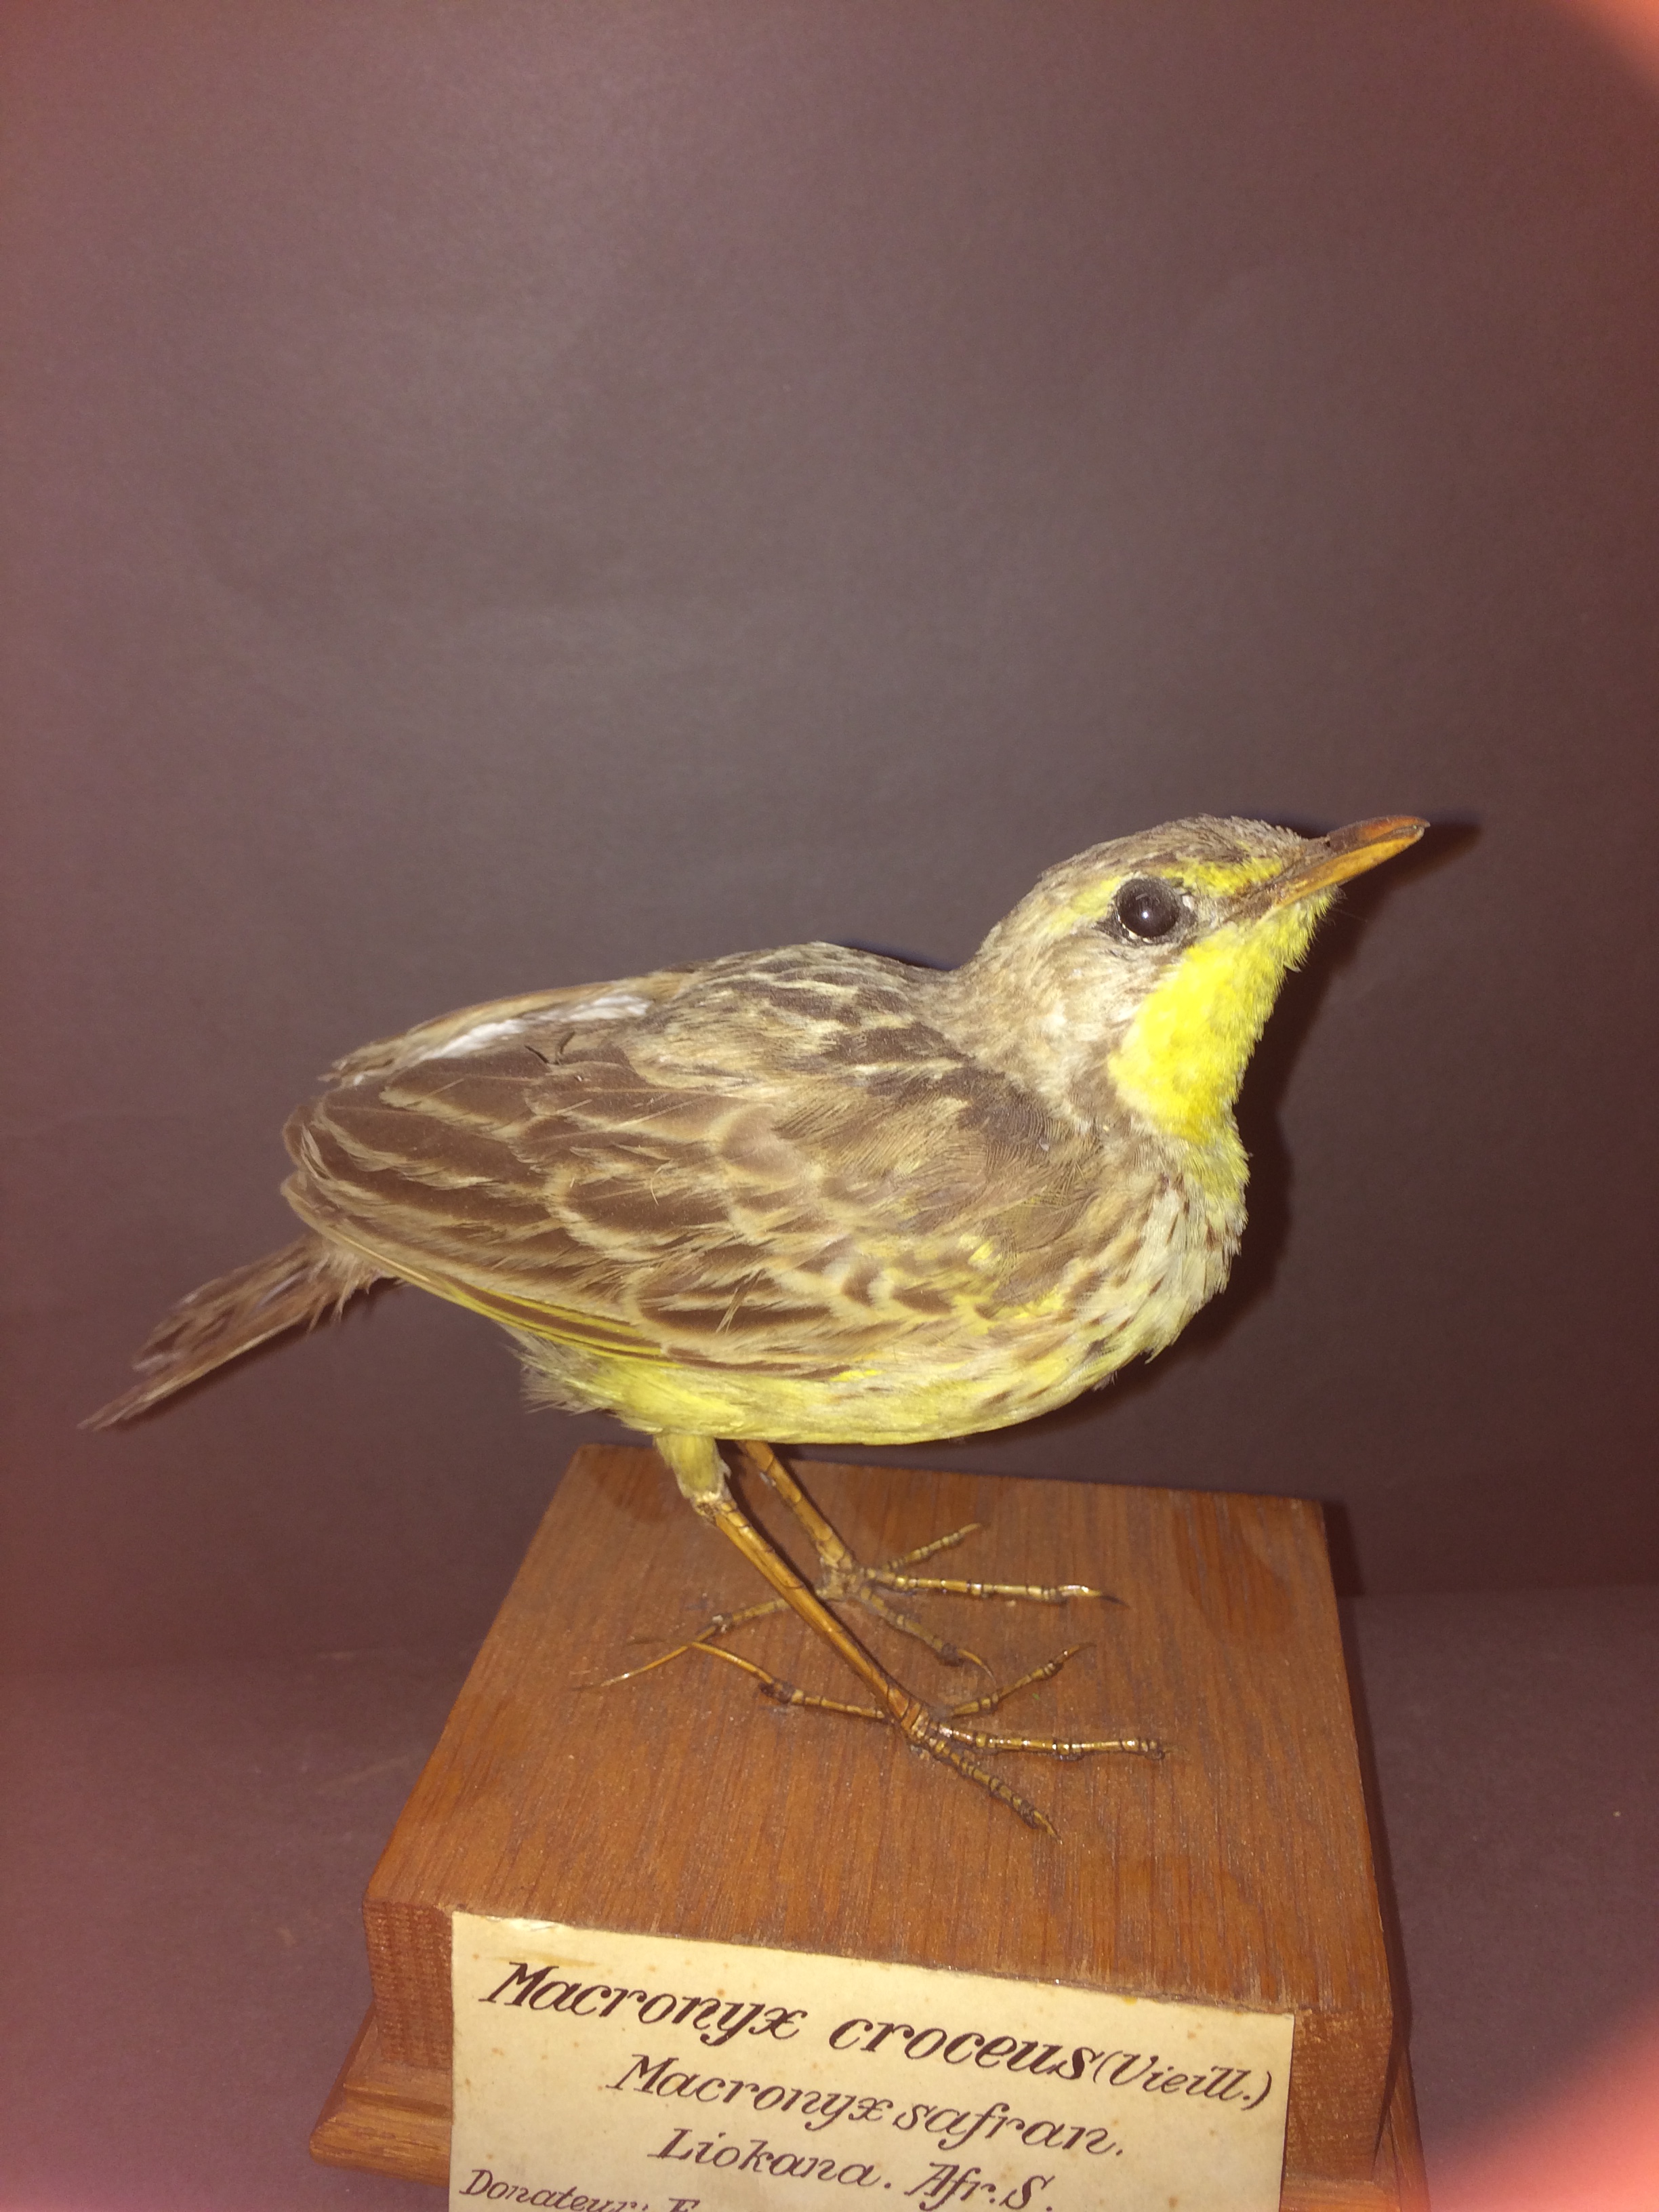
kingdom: Animalia
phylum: Chordata
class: Aves
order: Passeriformes
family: Motacillidae
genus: Macronyx
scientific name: Macronyx croceus
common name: Yellow-throated longclaw
